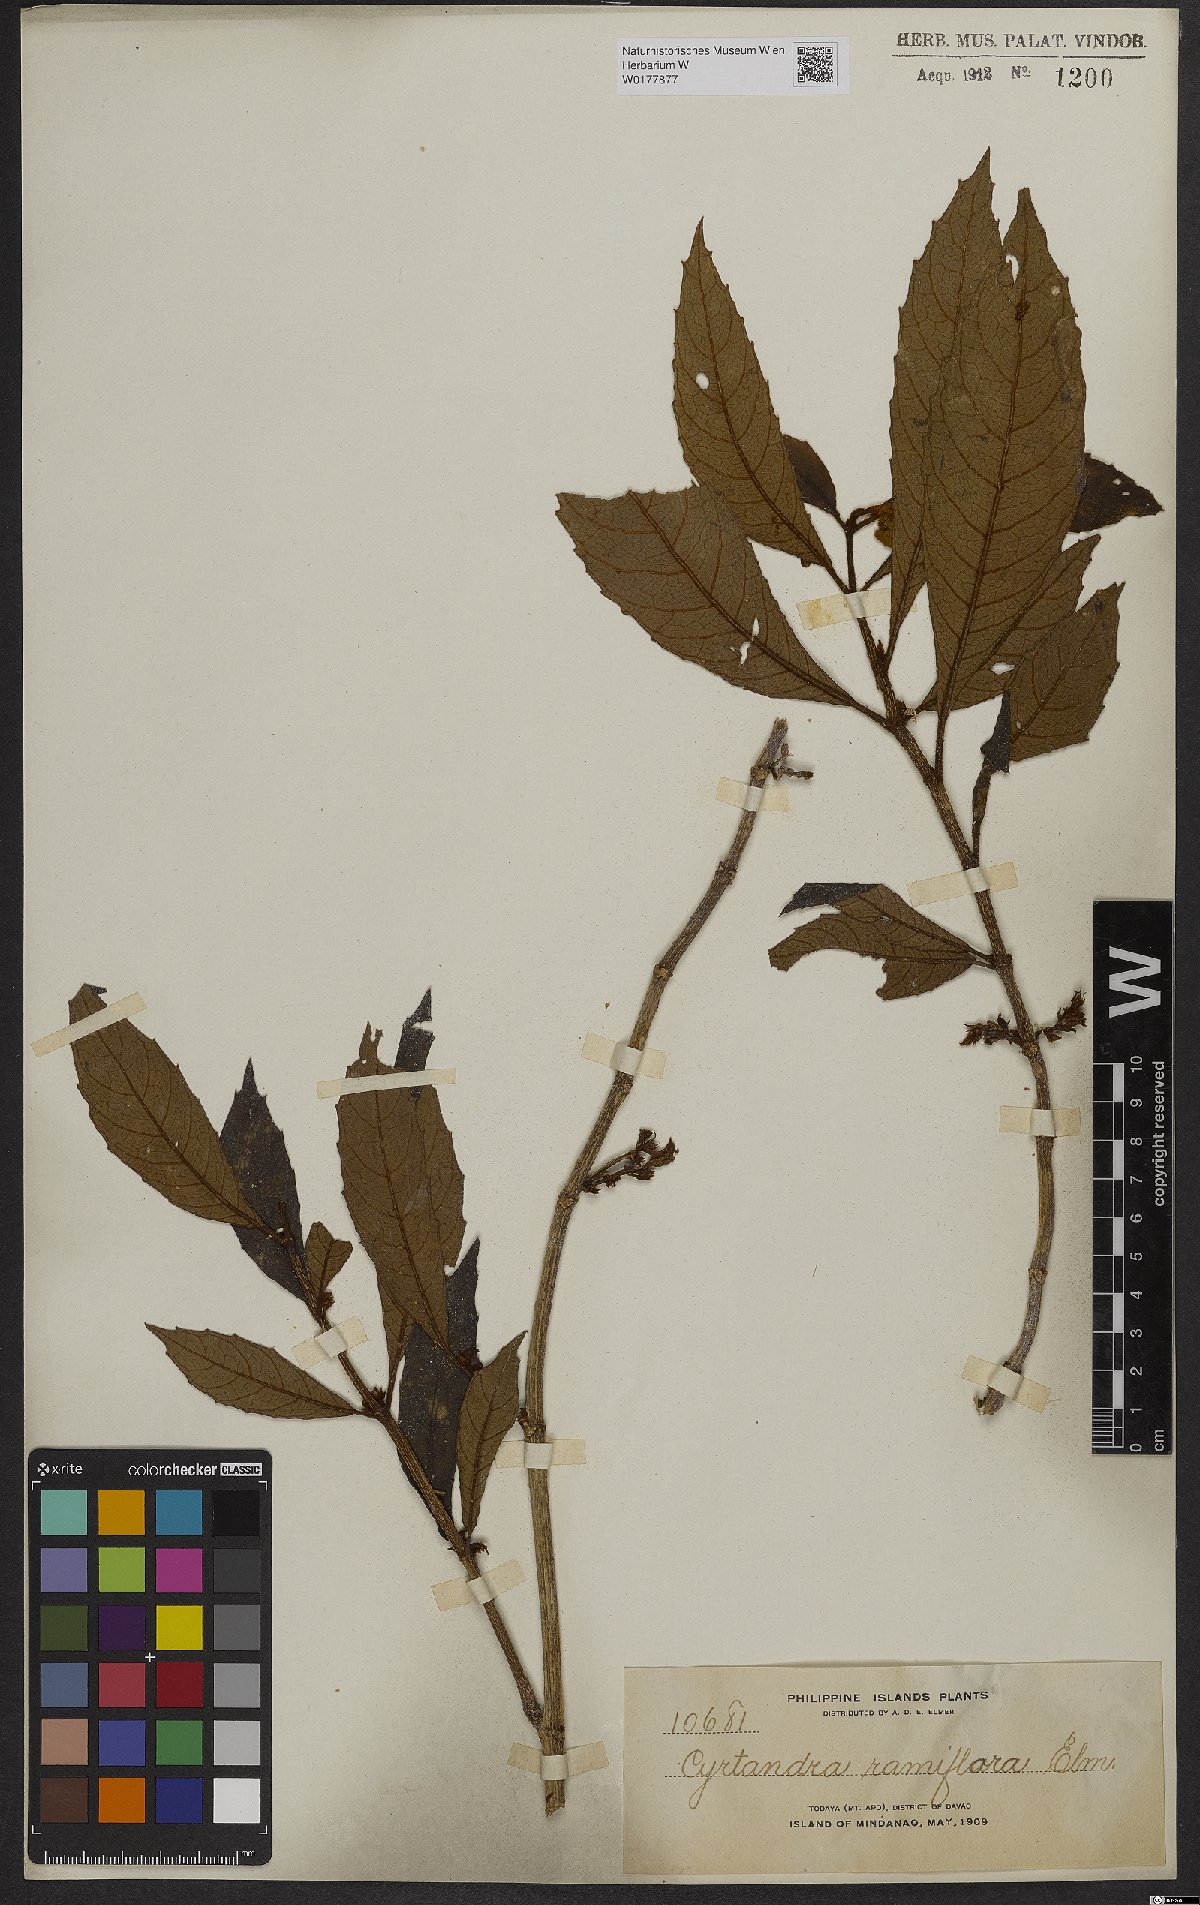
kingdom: Plantae
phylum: Tracheophyta
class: Magnoliopsida
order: Lamiales
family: Gesneriaceae
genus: Cyrtandra
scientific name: Cyrtandra
